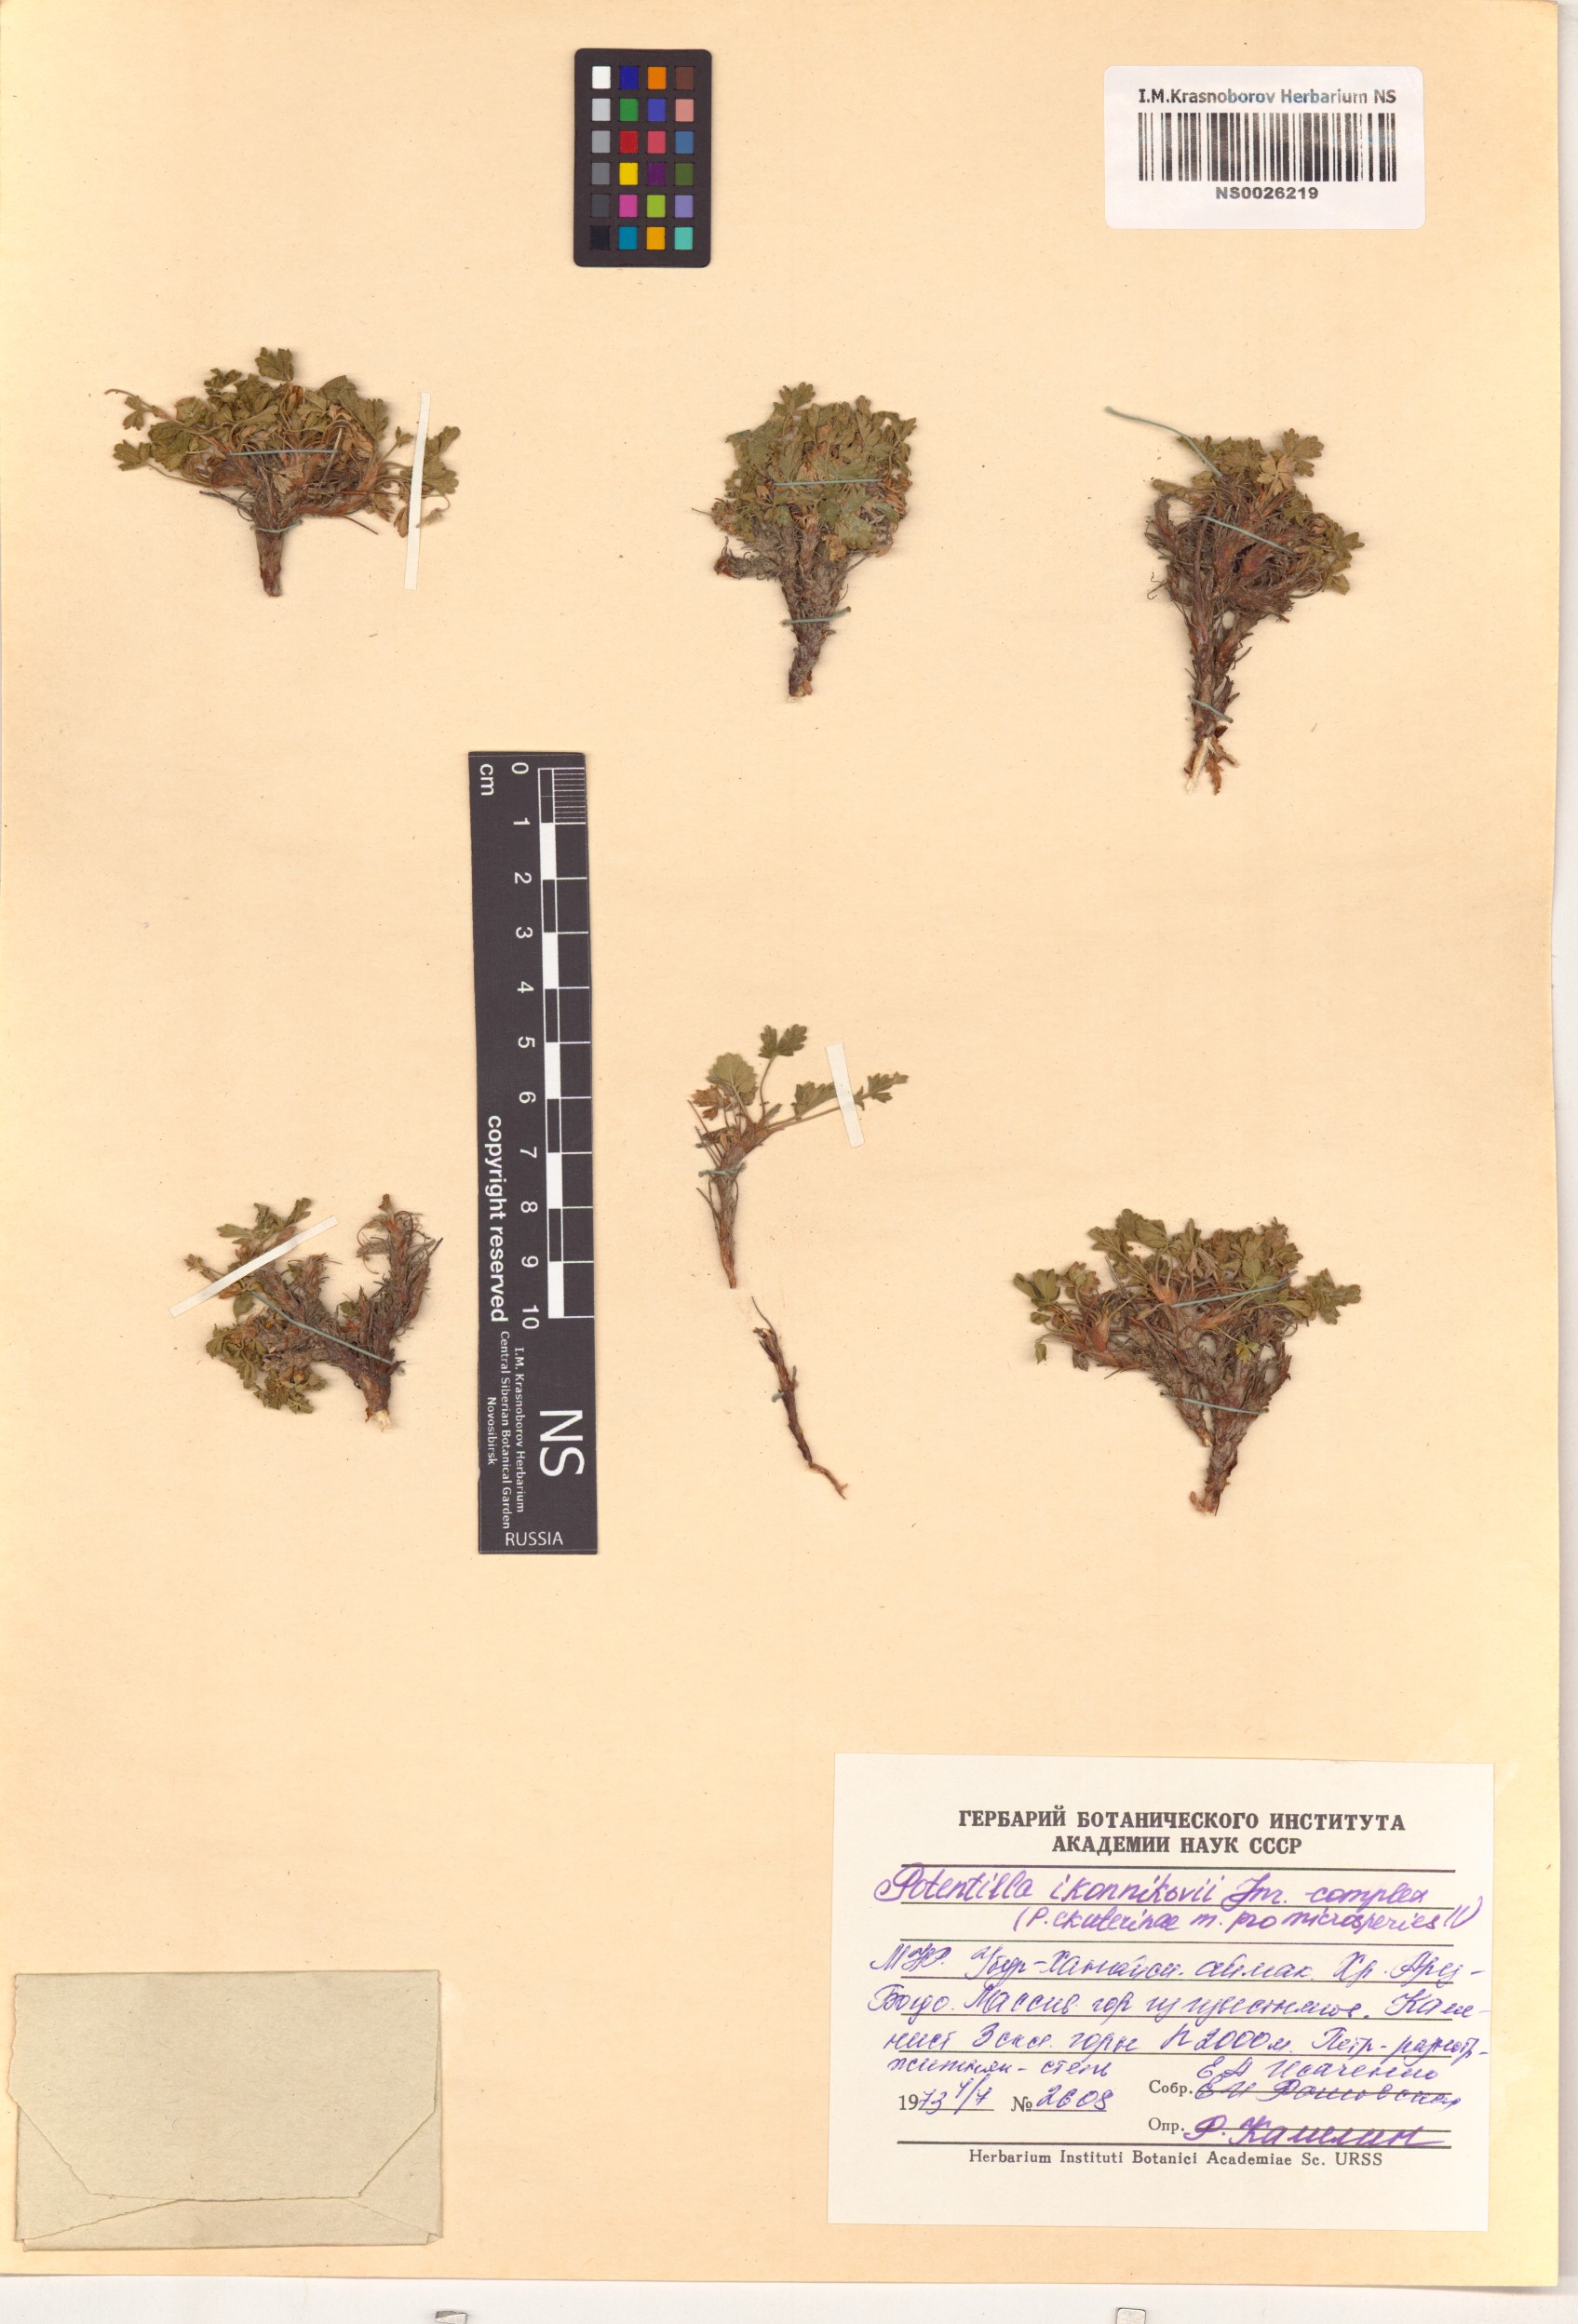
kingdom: Plantae
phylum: Tracheophyta
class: Magnoliopsida
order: Rosales
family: Rosaceae
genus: Potentilla
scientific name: Potentilla ikonnikovii
